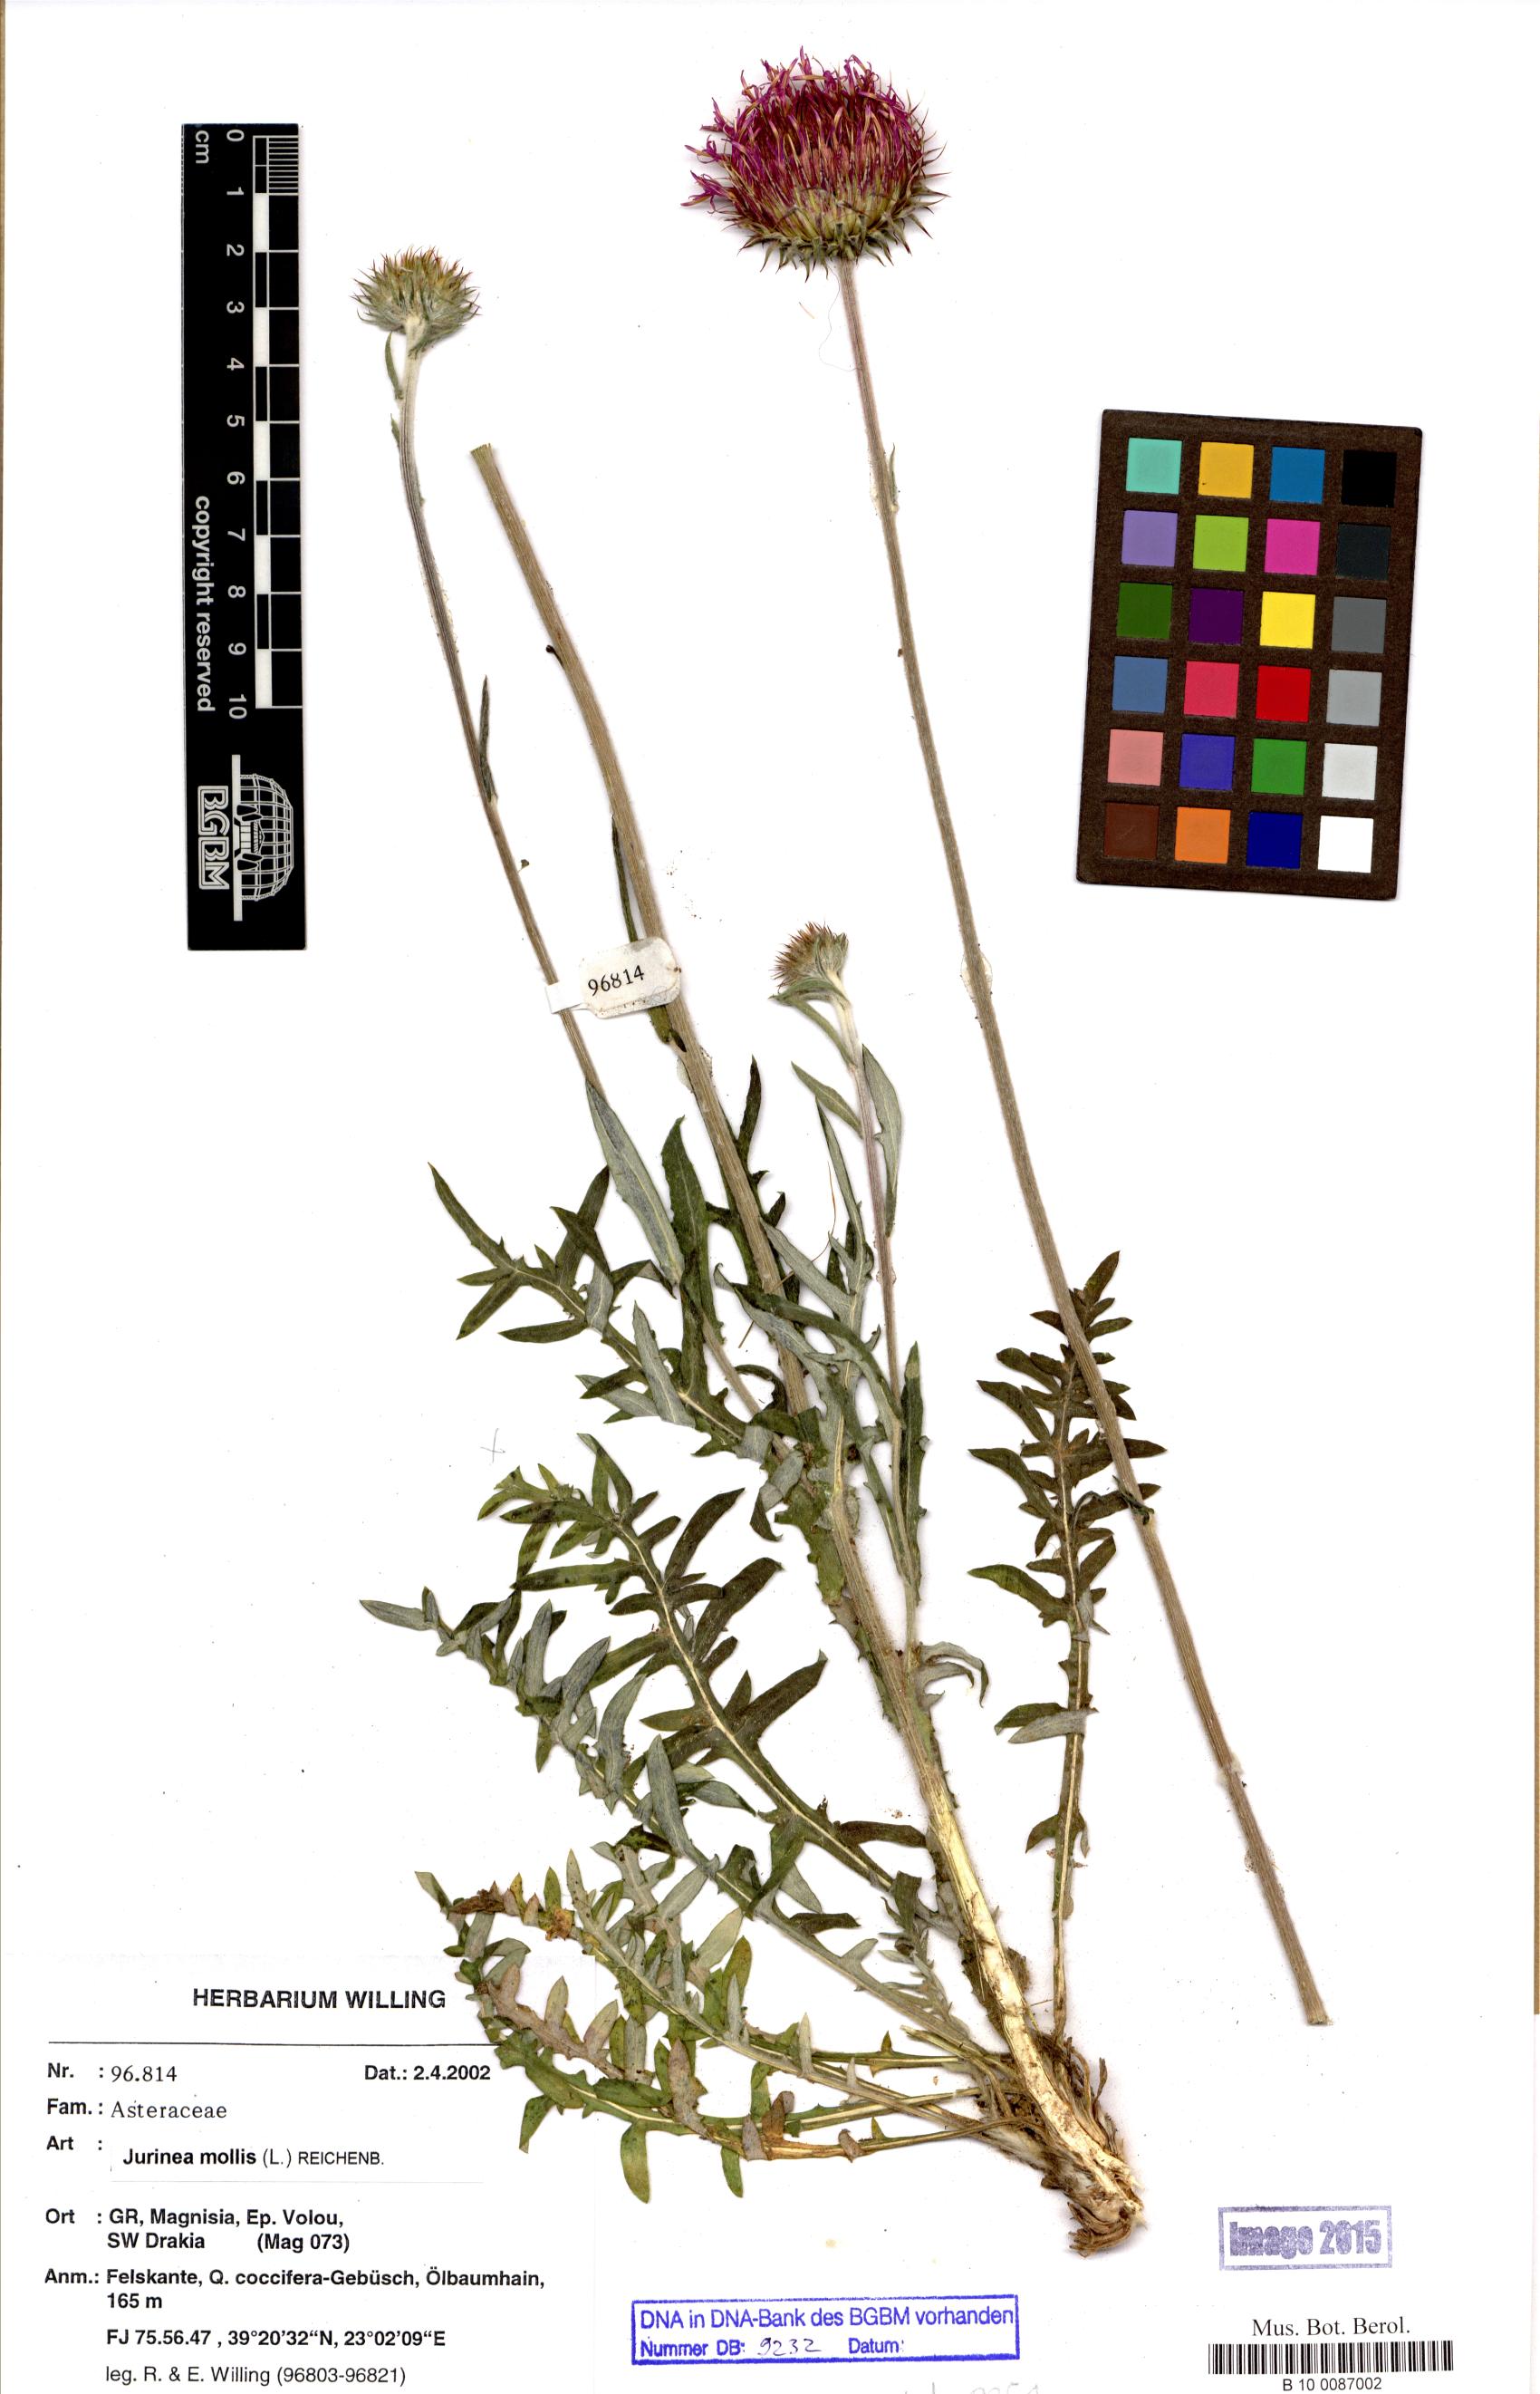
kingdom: Plantae
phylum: Tracheophyta
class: Magnoliopsida
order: Asterales
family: Asteraceae
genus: Jurinea
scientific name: Jurinea mollis
